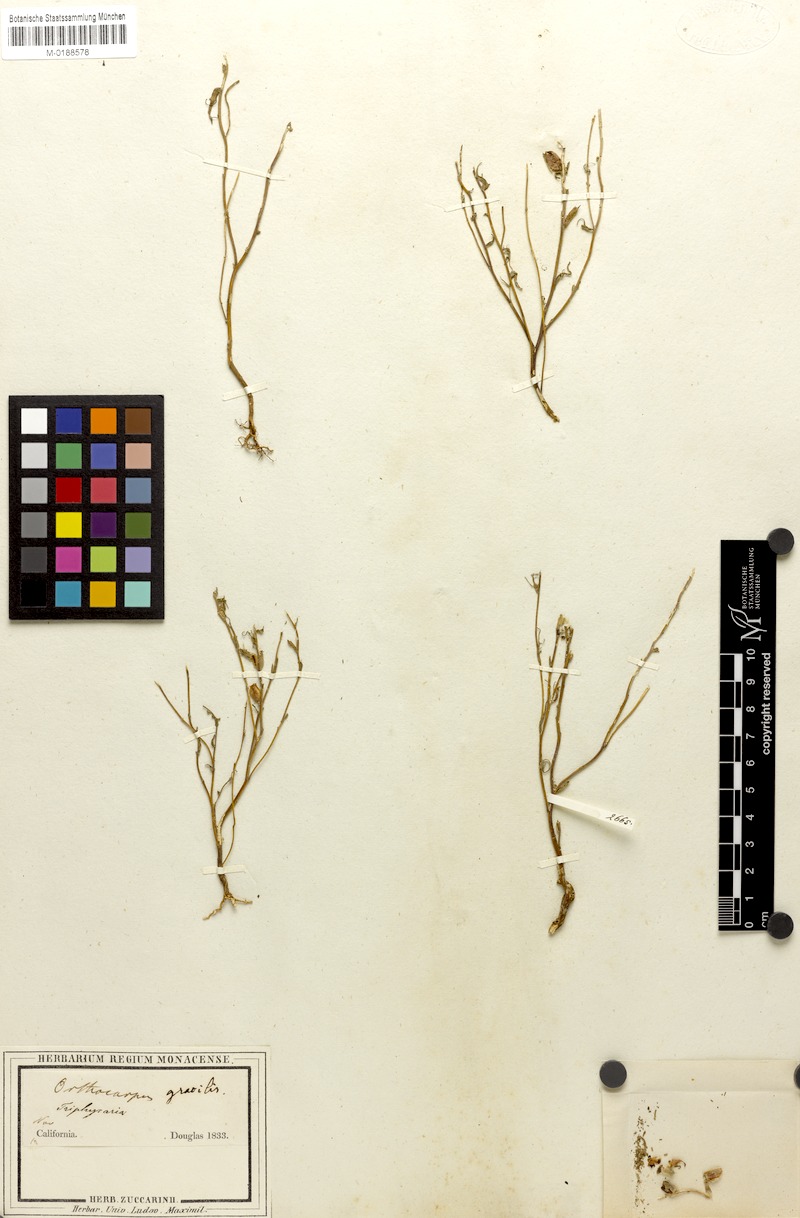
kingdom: Plantae
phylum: Tracheophyta
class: Magnoliopsida
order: Lamiales
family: Orobanchaceae
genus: Castilleja
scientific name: Castilleja densiflora
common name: Dense-flower indian paintbrush
